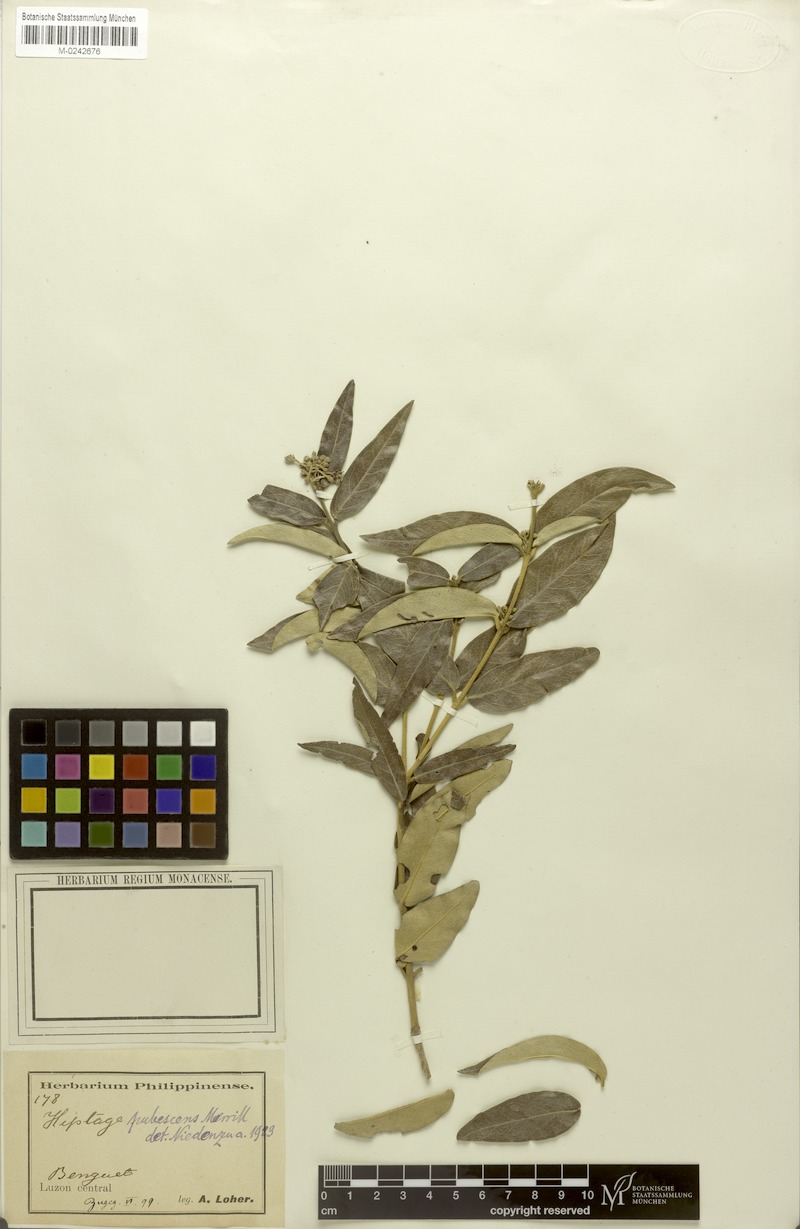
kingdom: Plantae
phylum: Tracheophyta
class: Magnoliopsida
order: Malpighiales
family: Malpighiaceae
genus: Hiptage
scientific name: Hiptage pubescens
